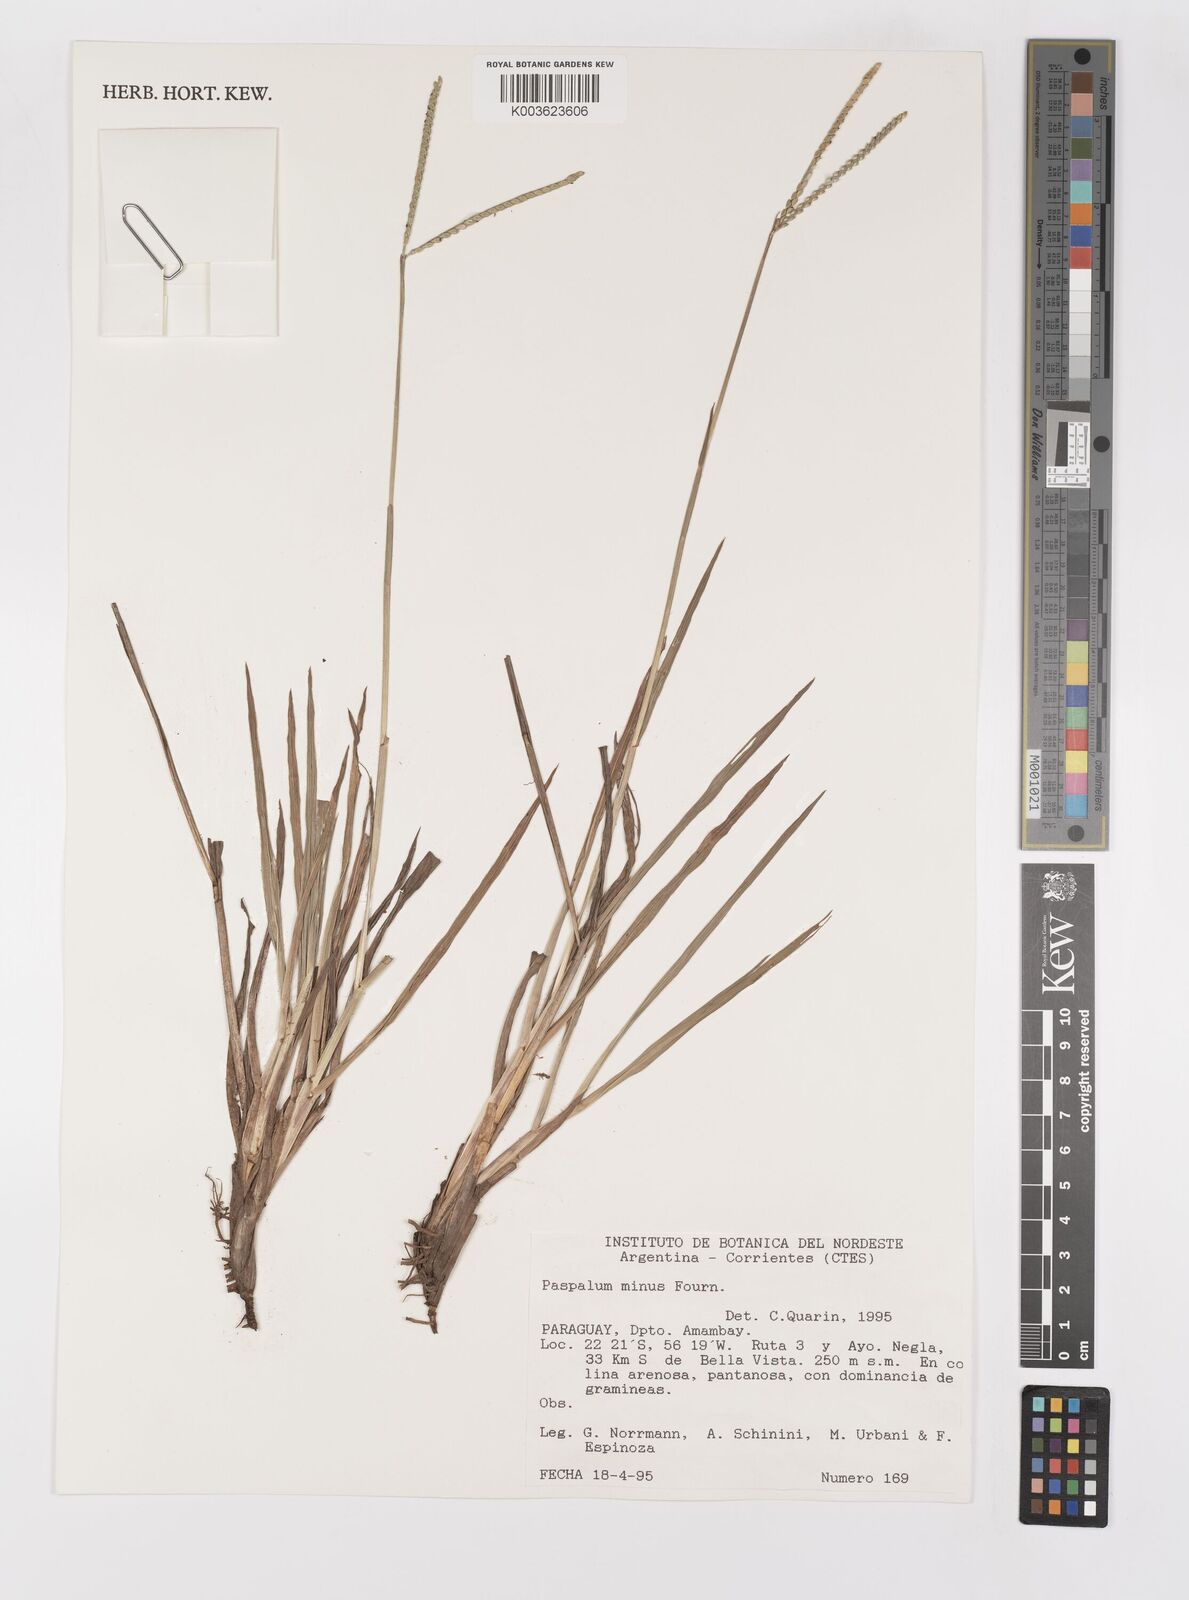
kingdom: Plantae
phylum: Tracheophyta
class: Liliopsida
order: Poales
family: Poaceae
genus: Paspalum
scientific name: Paspalum minus
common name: Matted paspalum
